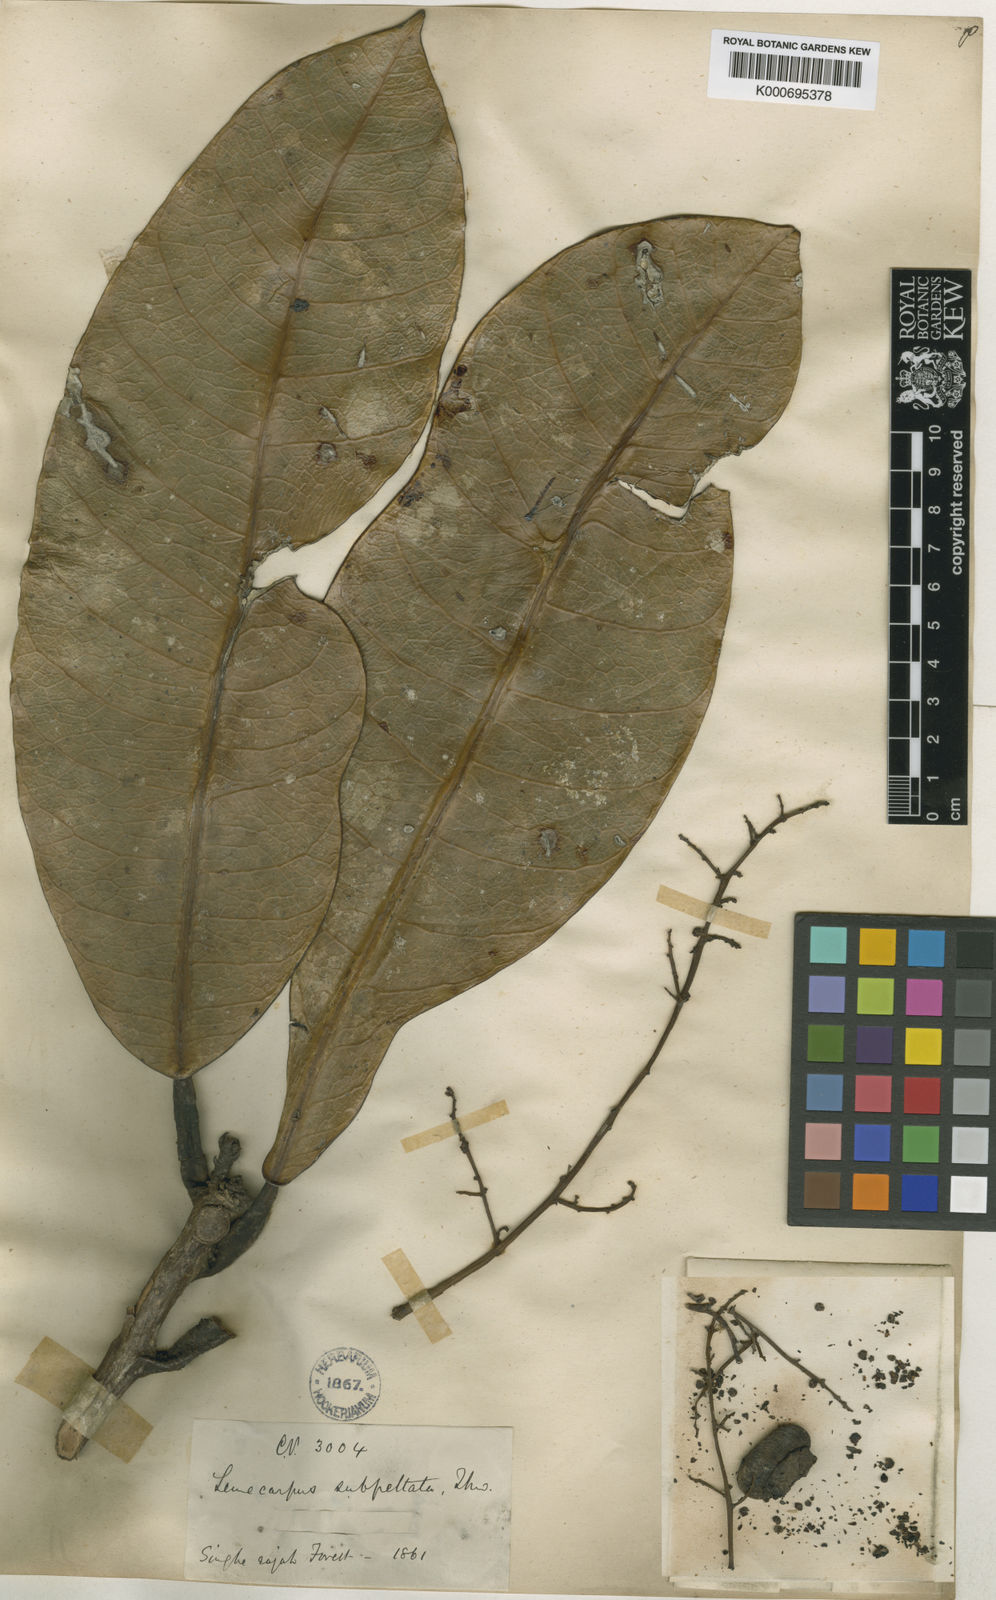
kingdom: Plantae
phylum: Tracheophyta
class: Magnoliopsida
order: Sapindales
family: Anacardiaceae
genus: Semecarpus
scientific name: Semecarpus subpeltatus
